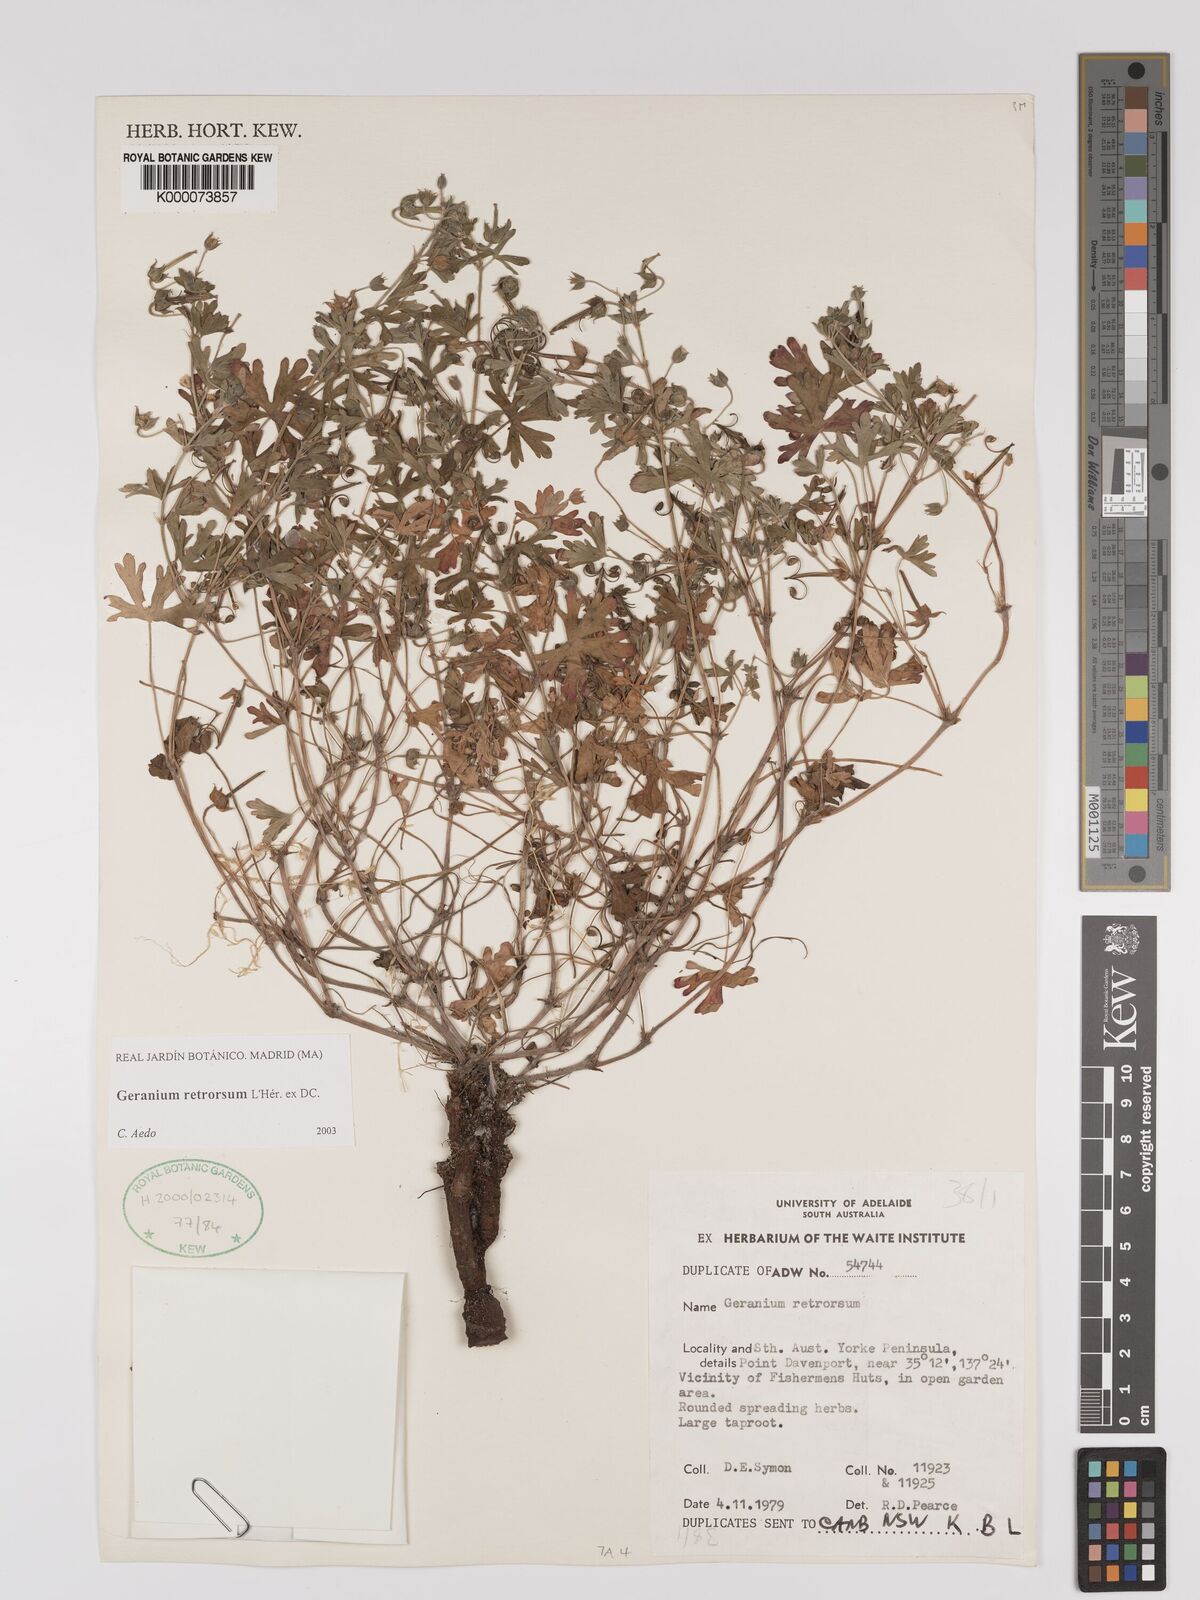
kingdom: Plantae
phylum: Tracheophyta
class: Magnoliopsida
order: Geraniales
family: Geraniaceae
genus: Geranium
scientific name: Geranium retrorsum
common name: New zealand geranium
